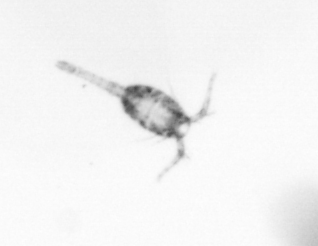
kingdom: Animalia
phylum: Arthropoda
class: Copepoda
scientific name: Copepoda
